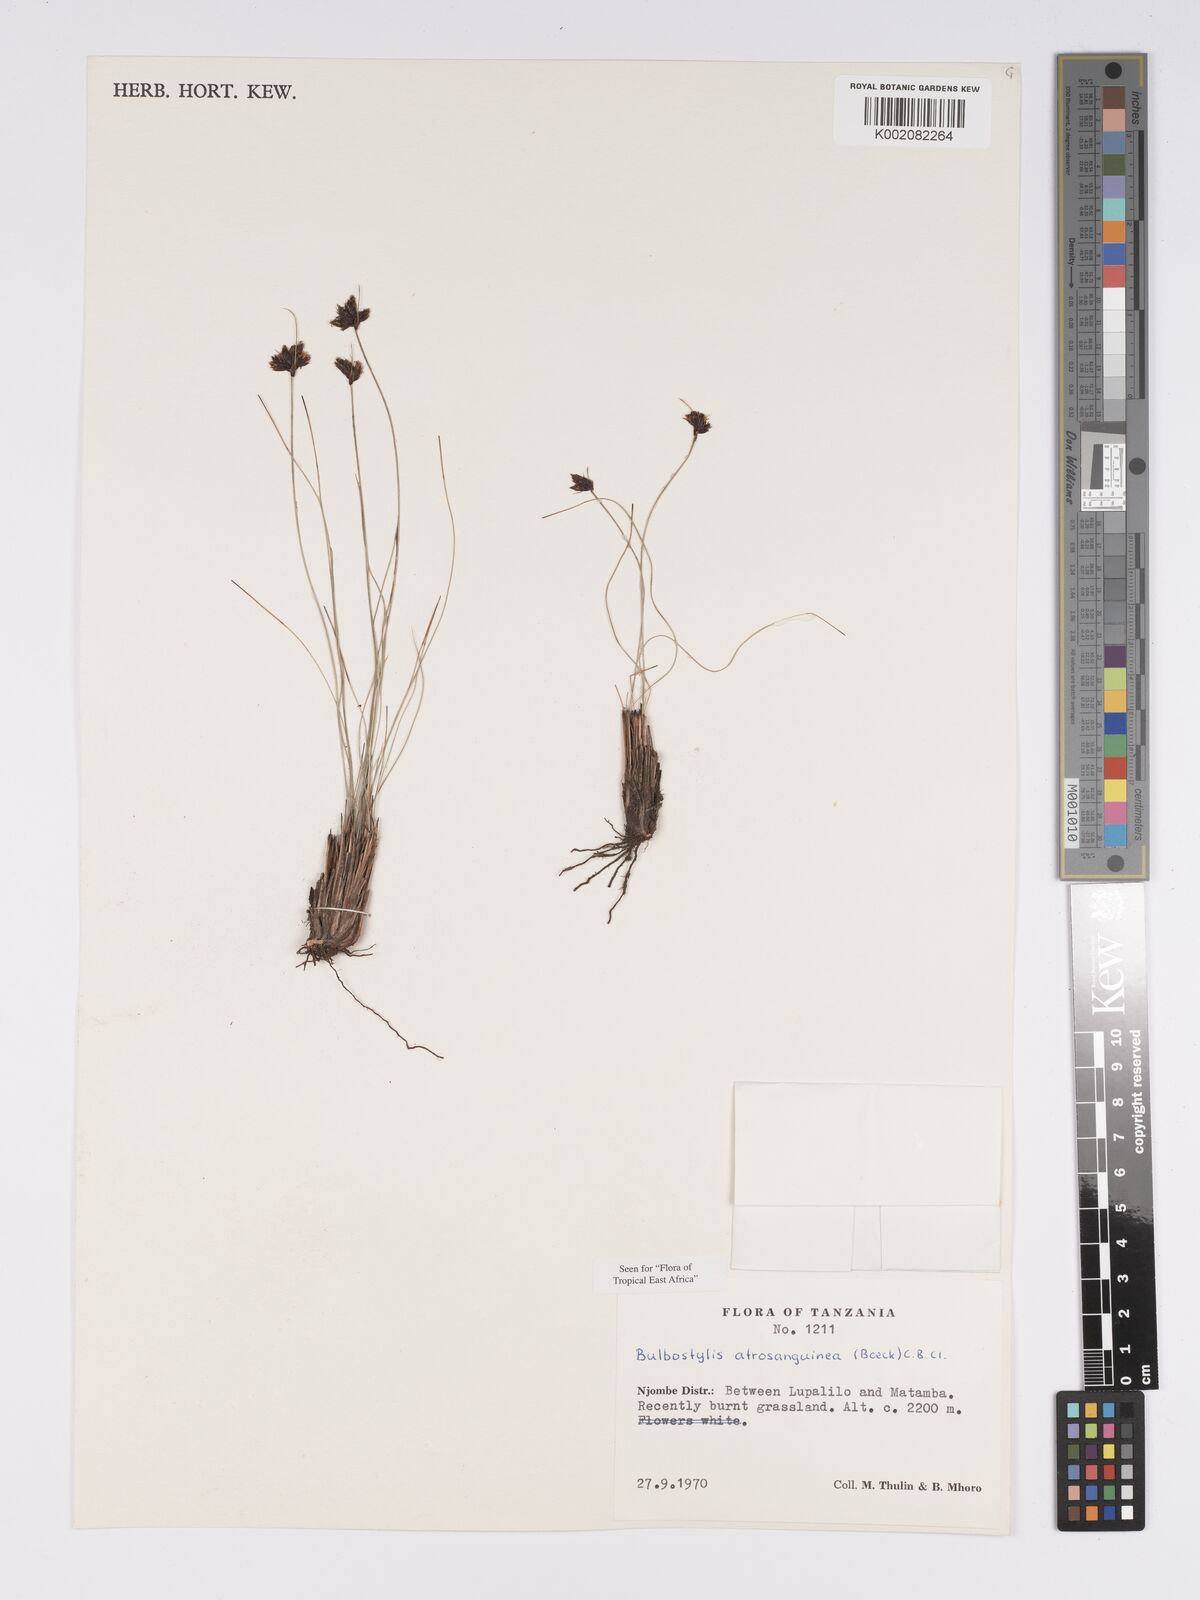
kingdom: Plantae
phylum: Tracheophyta
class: Liliopsida
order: Poales
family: Cyperaceae
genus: Bulbostylis
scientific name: Bulbostylis atrosanguinea
